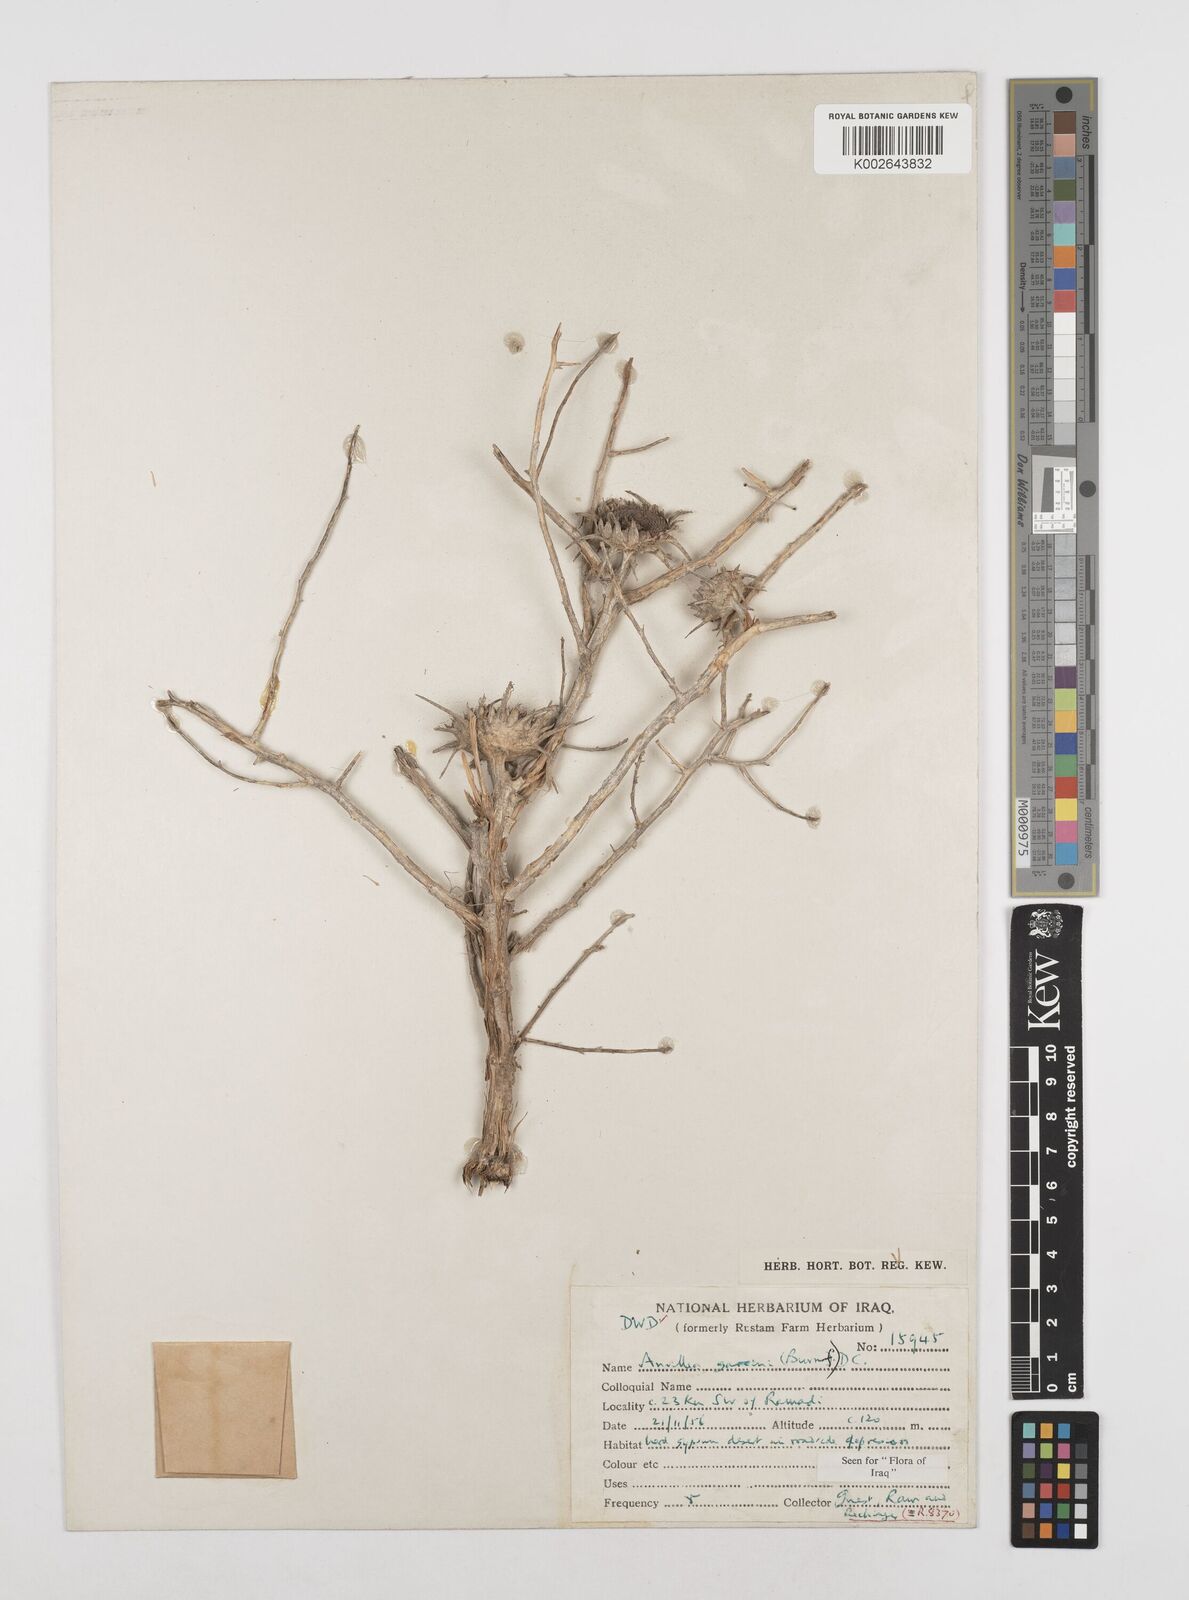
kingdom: Plantae
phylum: Tracheophyta
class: Magnoliopsida
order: Asterales
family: Asteraceae
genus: Anvillea
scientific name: Anvillea garcinii
